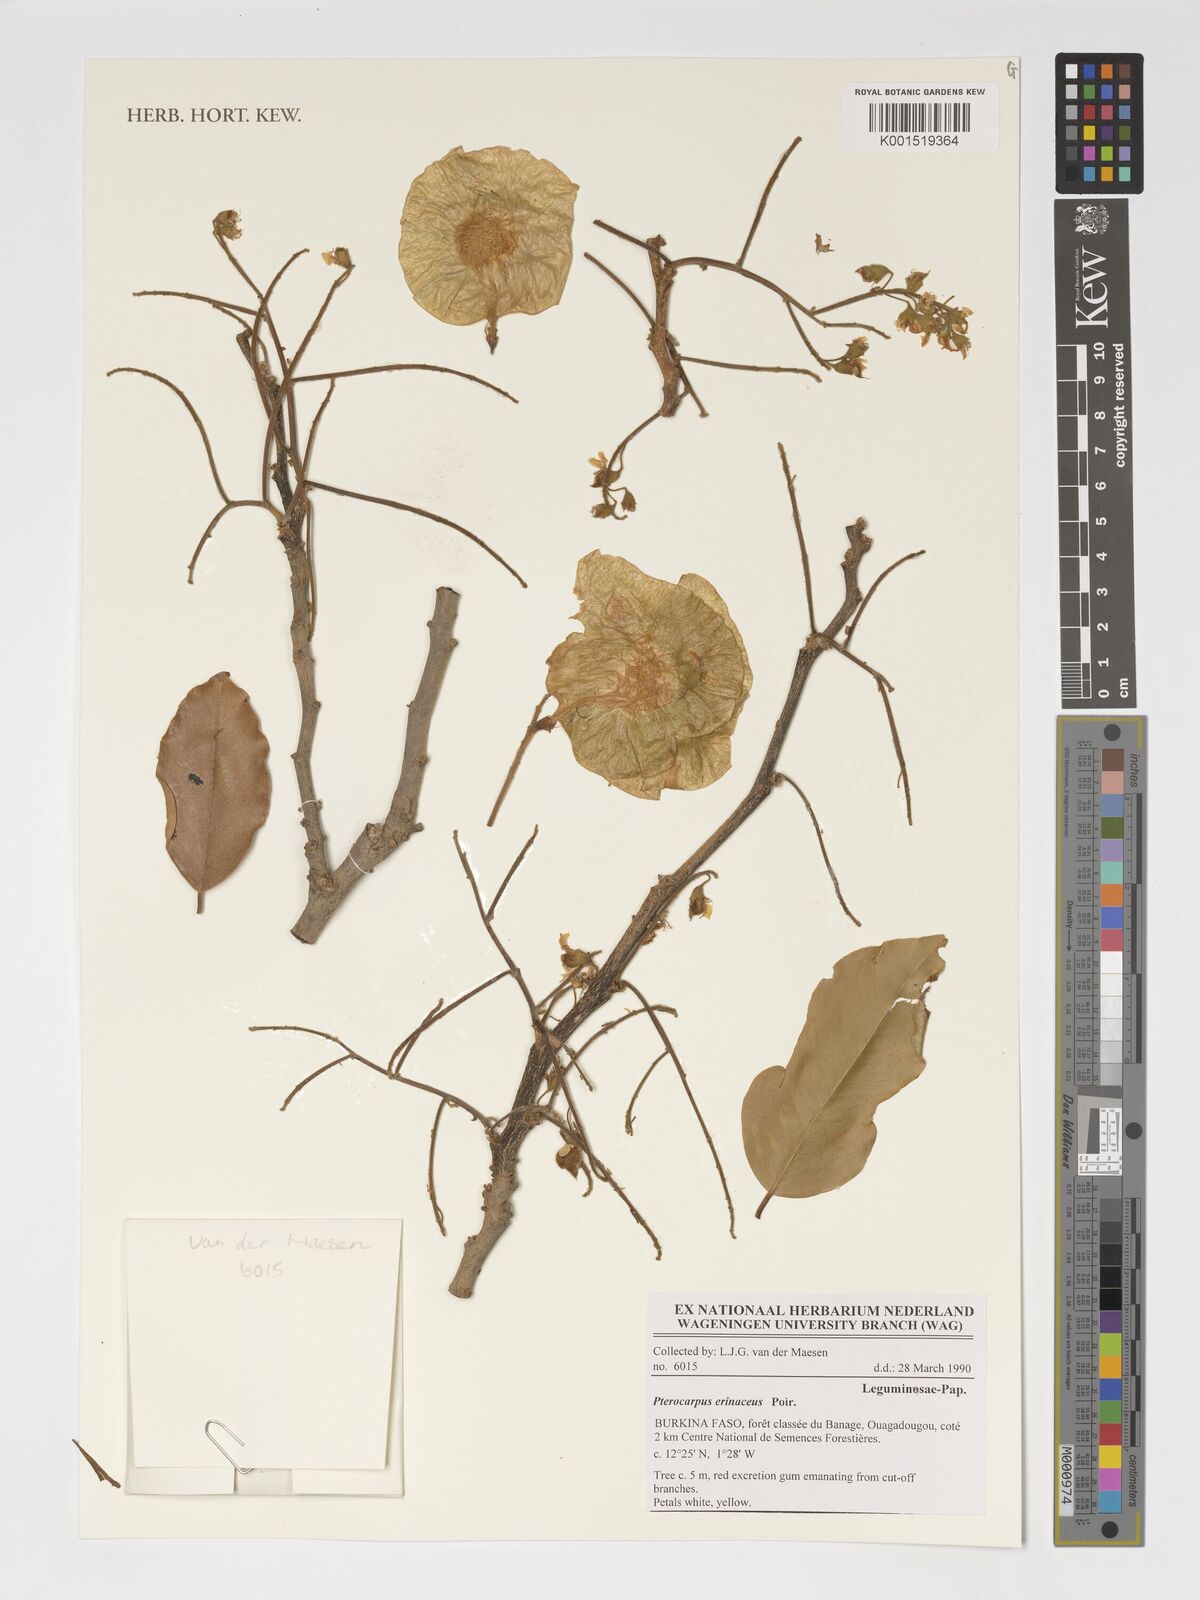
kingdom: Plantae
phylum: Tracheophyta
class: Magnoliopsida
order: Fabales
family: Fabaceae
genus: Pterocarpus
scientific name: Pterocarpus erinaceus
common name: African rosewood
